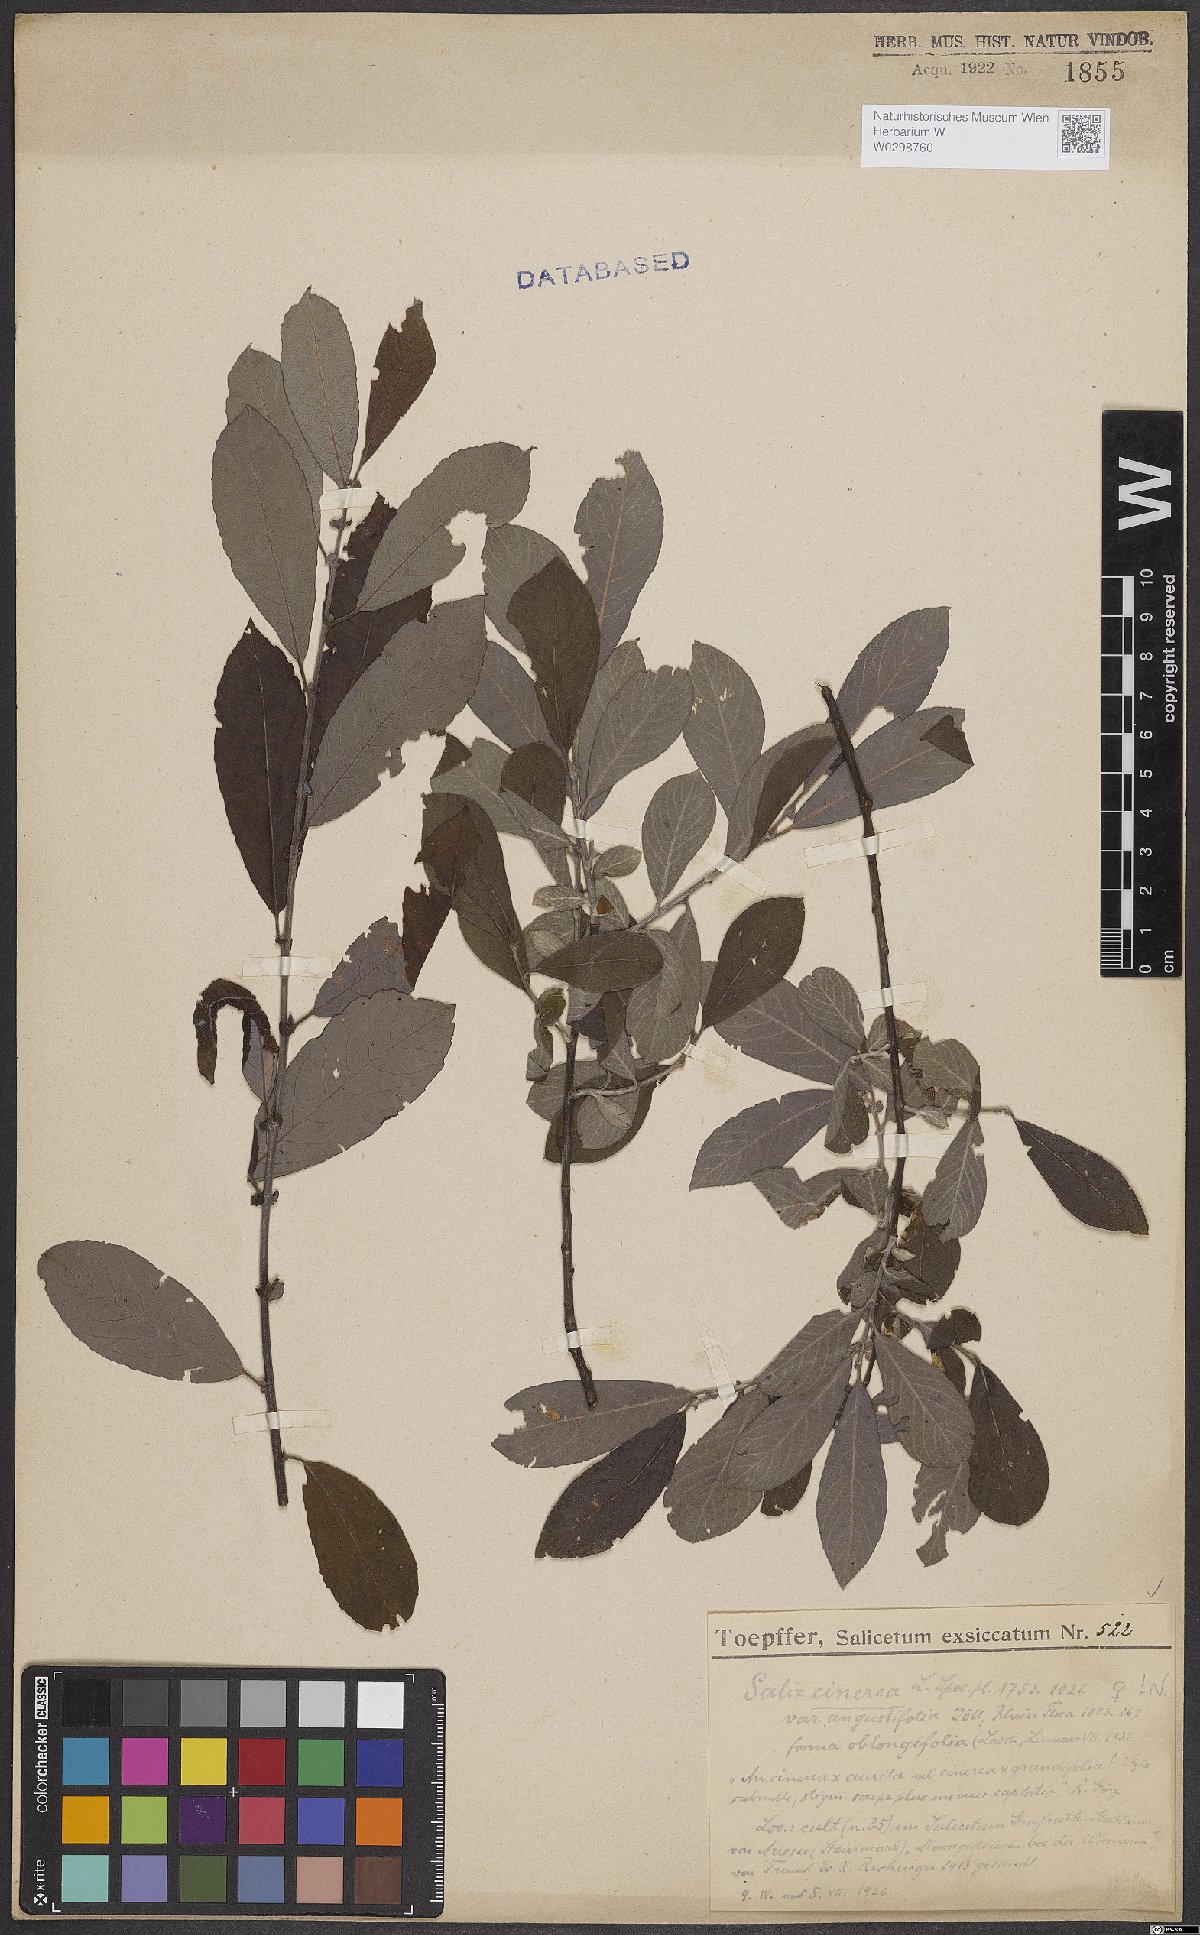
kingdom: Plantae
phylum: Tracheophyta
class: Magnoliopsida
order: Malpighiales
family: Salicaceae
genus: Salix
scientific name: Salix cinerea
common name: Common sallow
